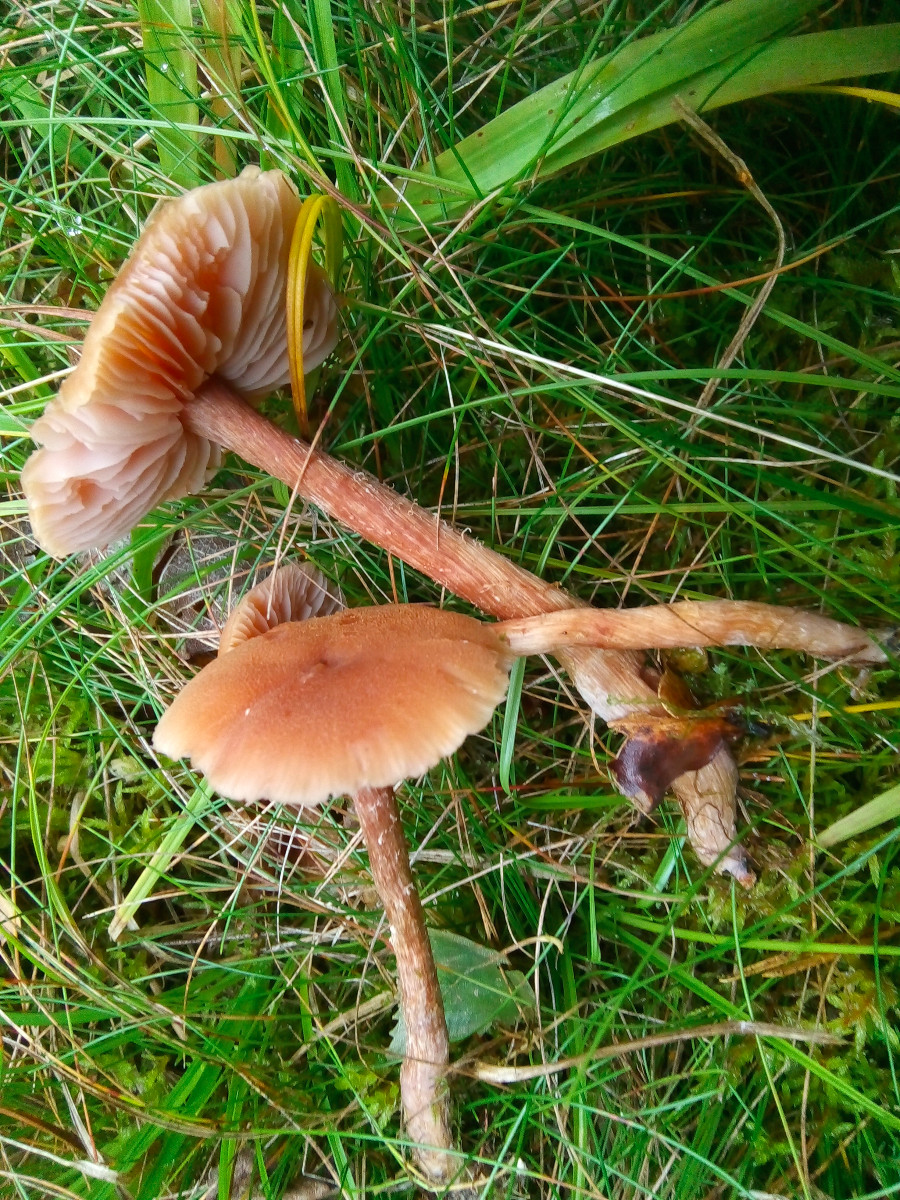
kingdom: Fungi
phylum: Basidiomycota
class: Agaricomycetes
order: Agaricales
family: Hydnangiaceae
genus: Laccaria
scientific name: Laccaria proxima
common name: stor ametysthat
